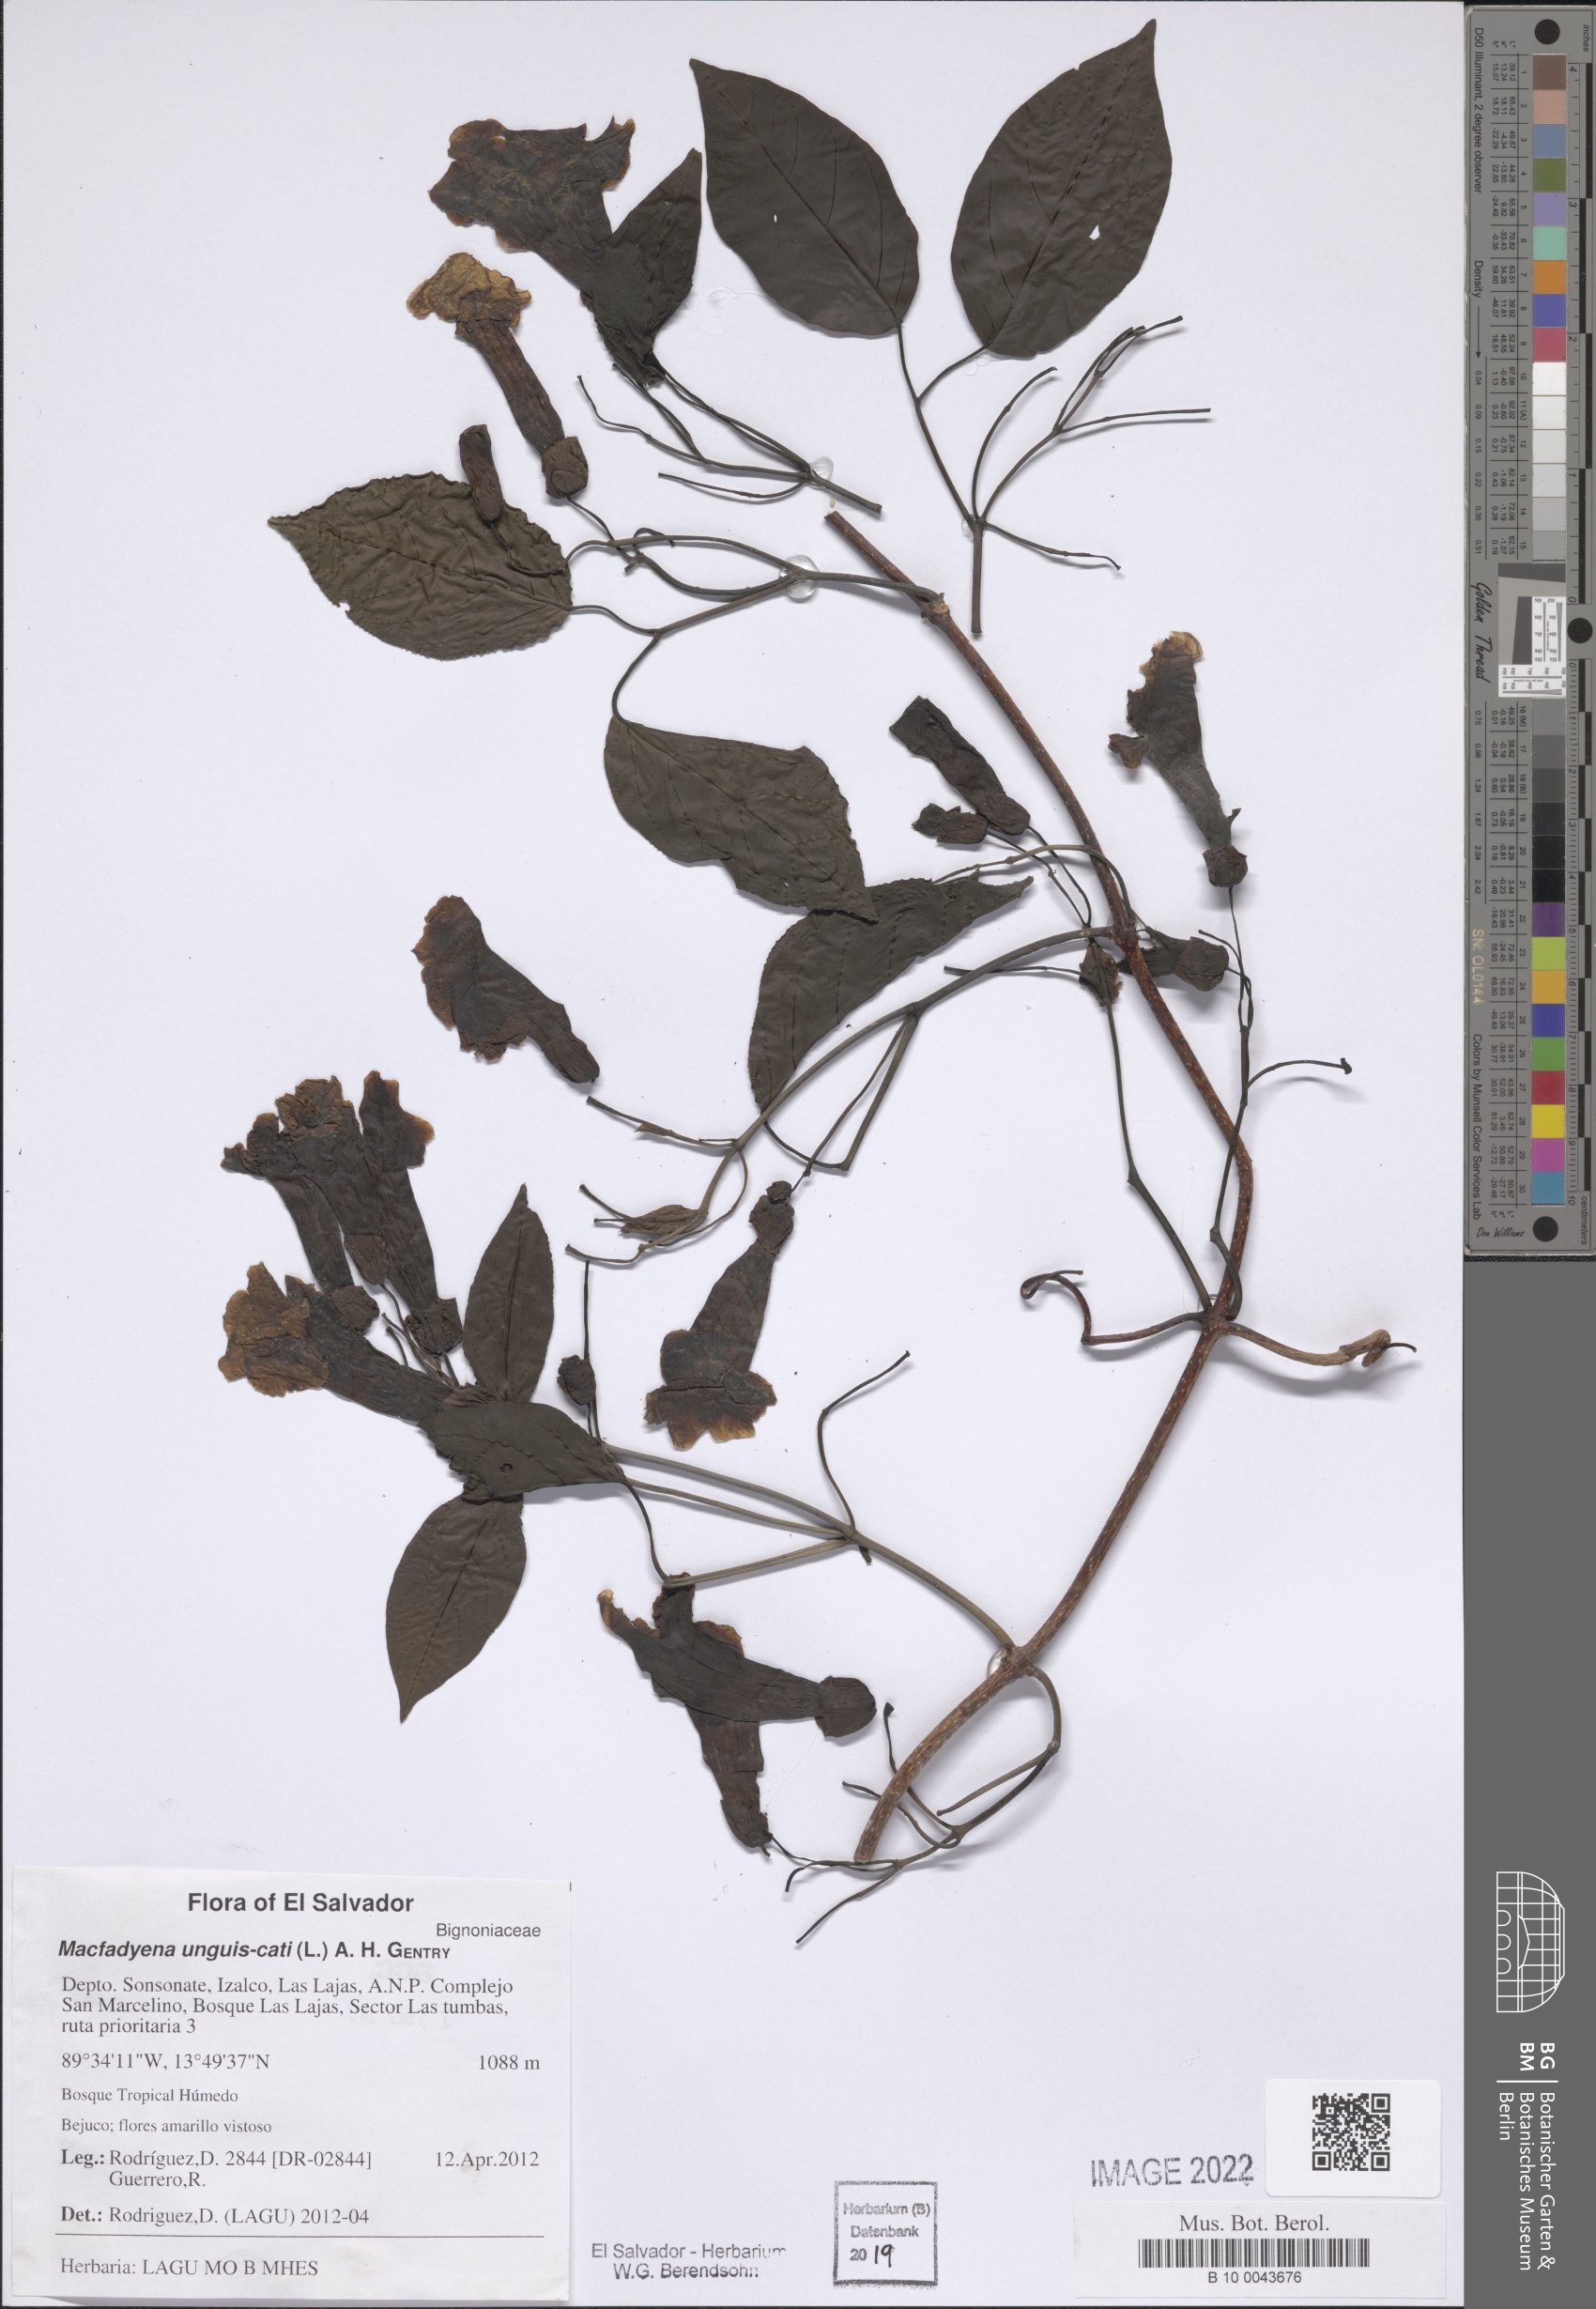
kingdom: Plantae
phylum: Tracheophyta
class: Magnoliopsida
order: Lamiales
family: Bignoniaceae
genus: Dolichandra
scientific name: Dolichandra unguis-cati
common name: Catclaw vine
